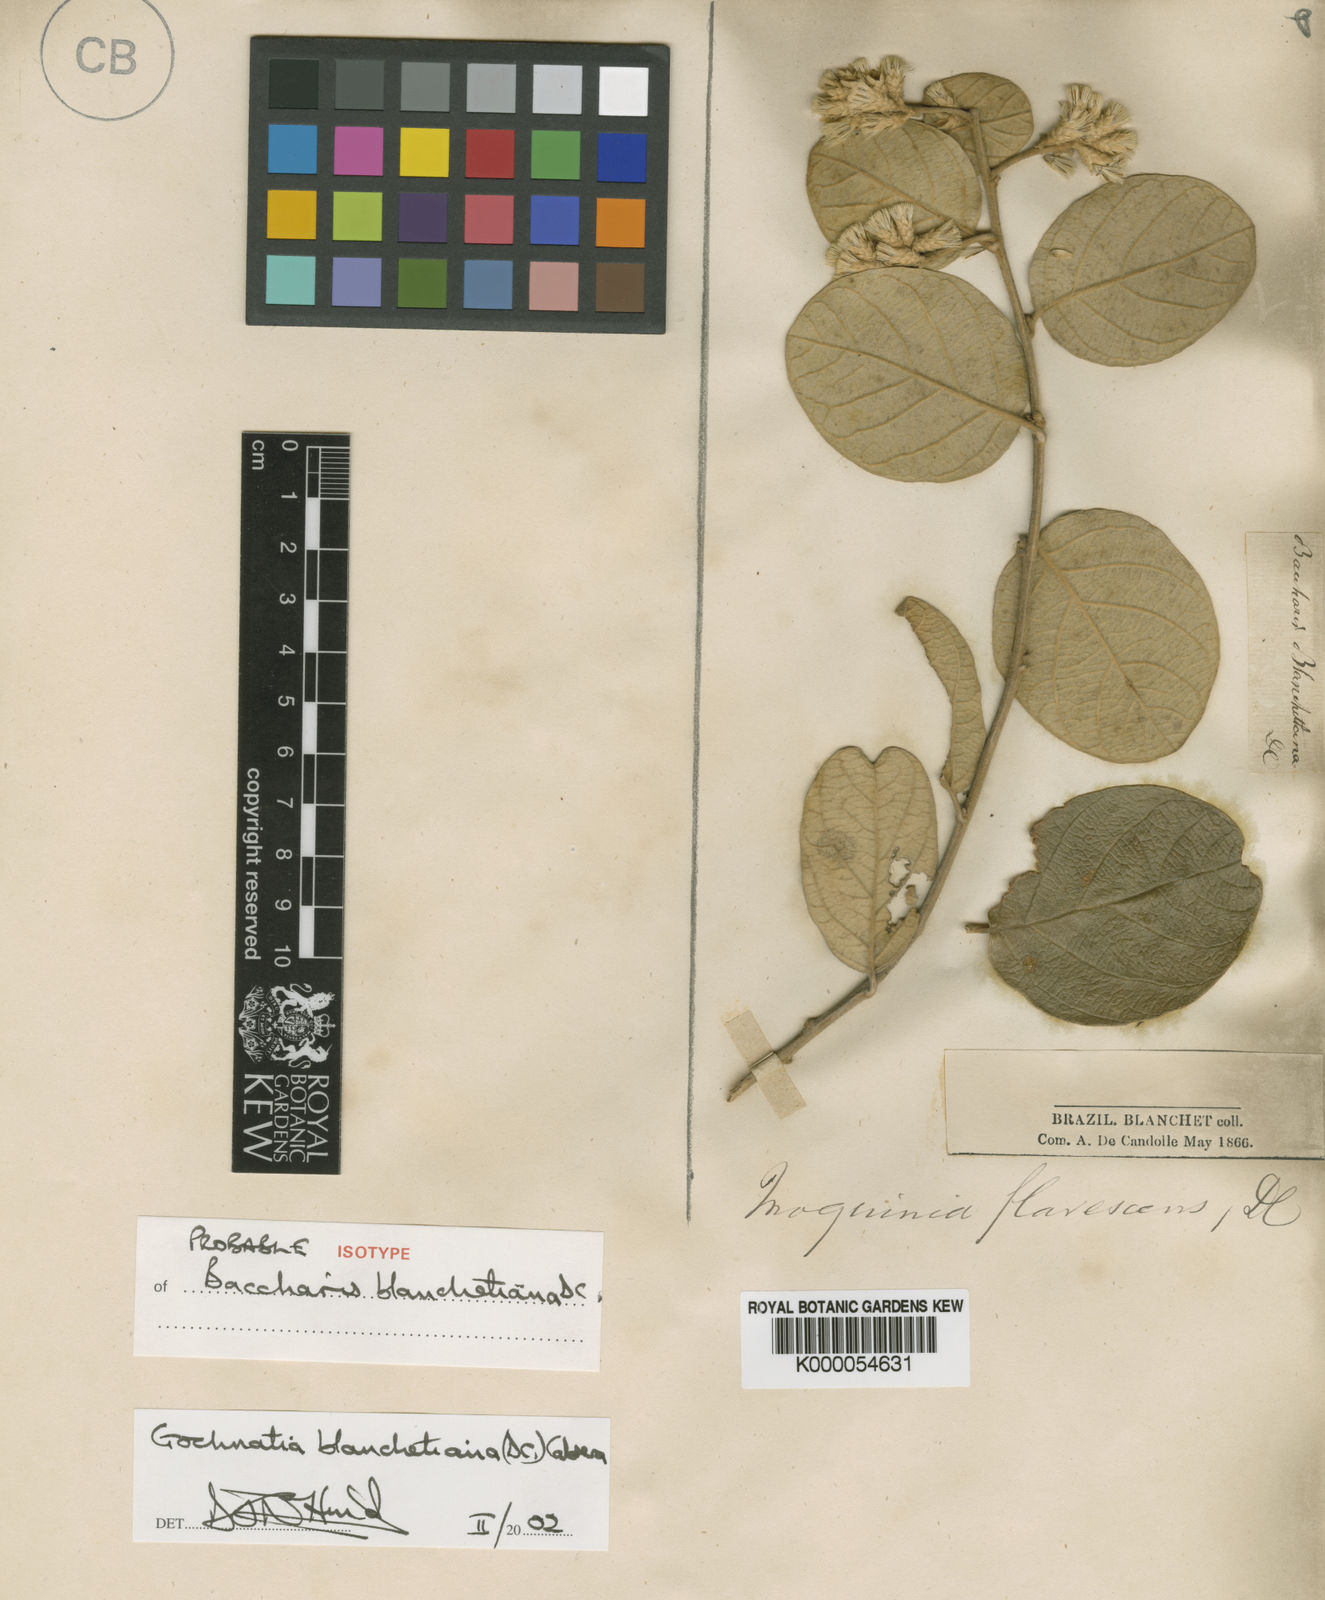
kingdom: Plantae
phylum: Tracheophyta
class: Magnoliopsida
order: Asterales
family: Asteraceae
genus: Moquiniastrum
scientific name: Moquiniastrum blanchetianum
